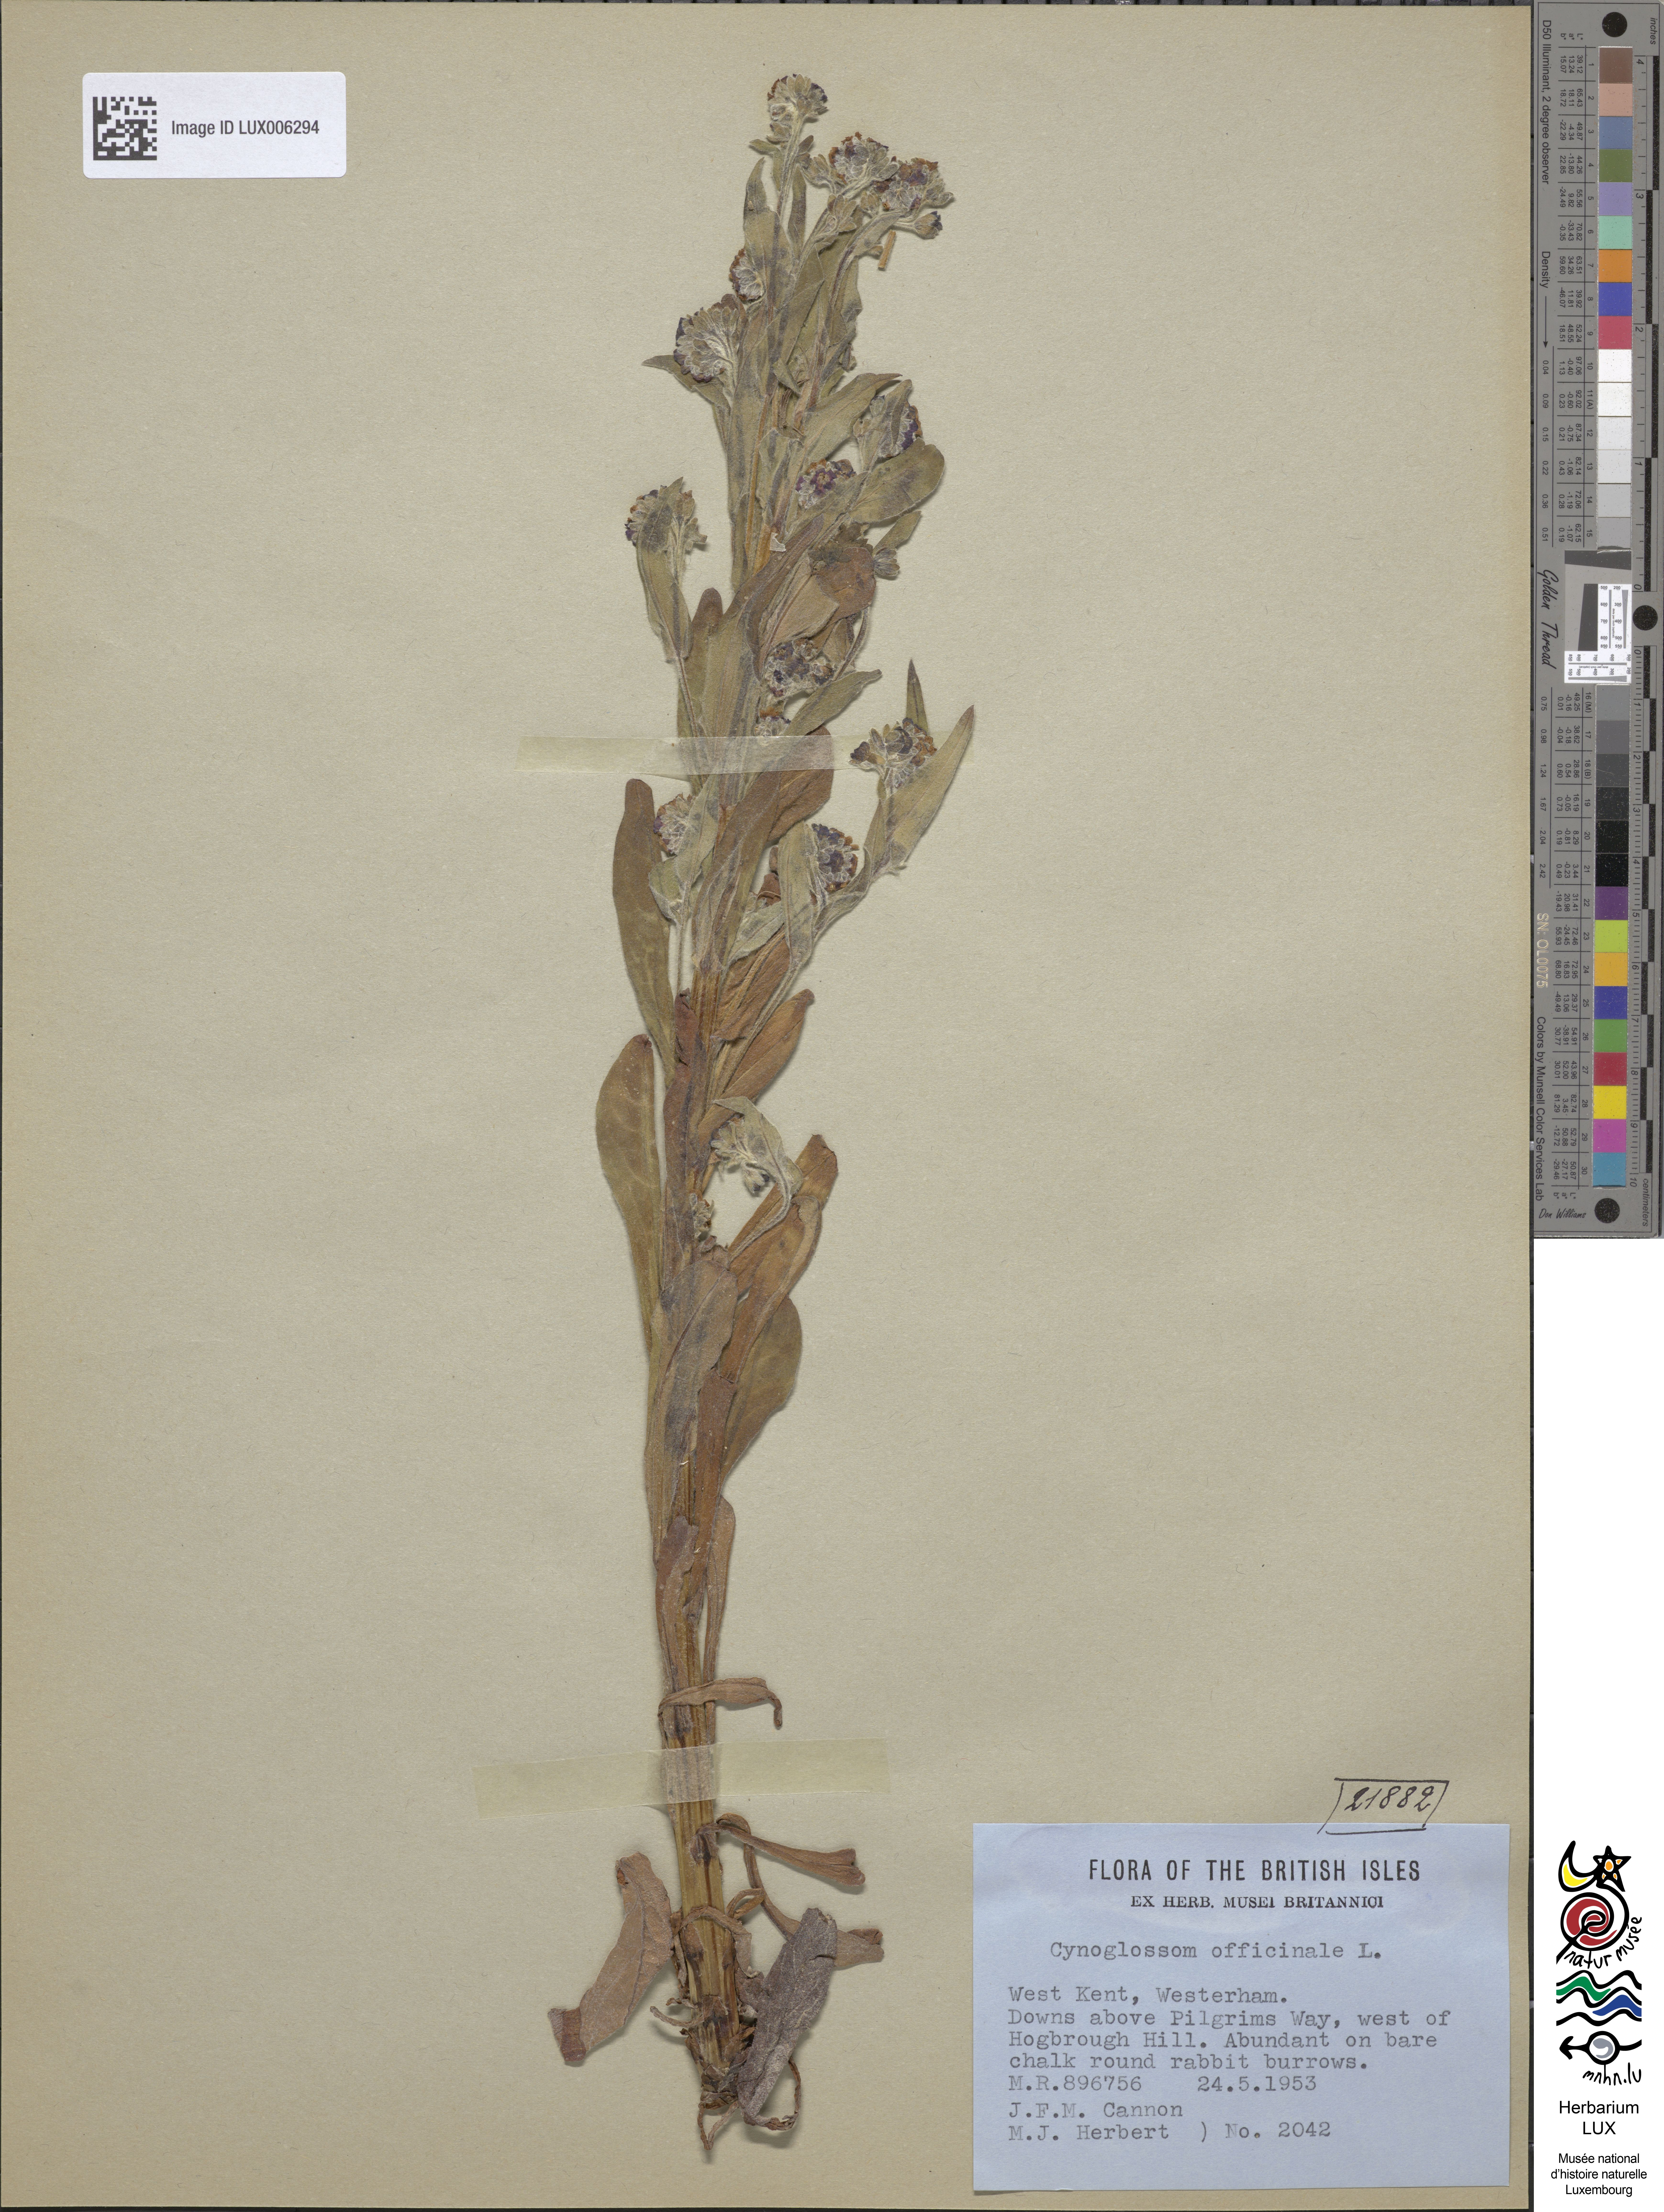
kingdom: Plantae
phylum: Tracheophyta
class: Magnoliopsida
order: Boraginales
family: Boraginaceae
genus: Cynoglossum
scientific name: Cynoglossum officinale
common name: Hound's-tongue
